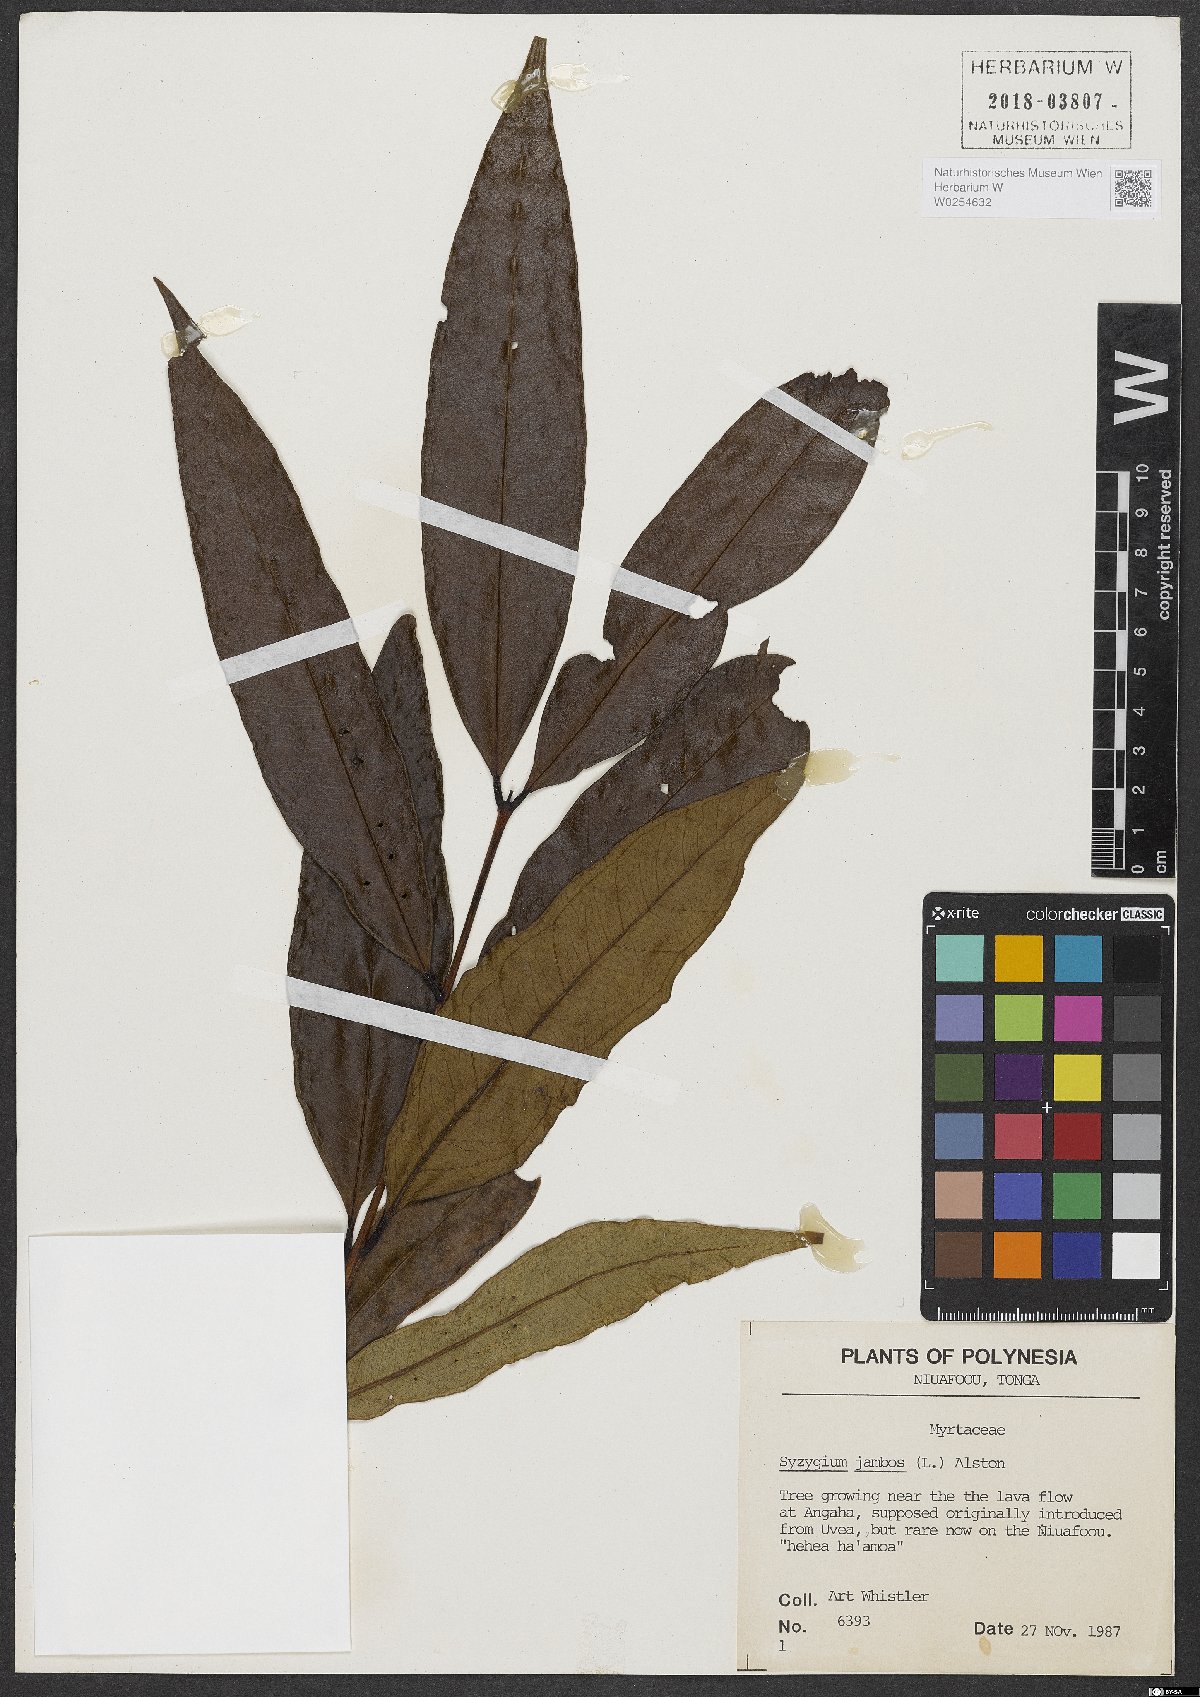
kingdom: Plantae
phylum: Tracheophyta
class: Magnoliopsida
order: Myrtales
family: Myrtaceae
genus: Syzygium
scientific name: Syzygium jambos
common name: Malabar plum
